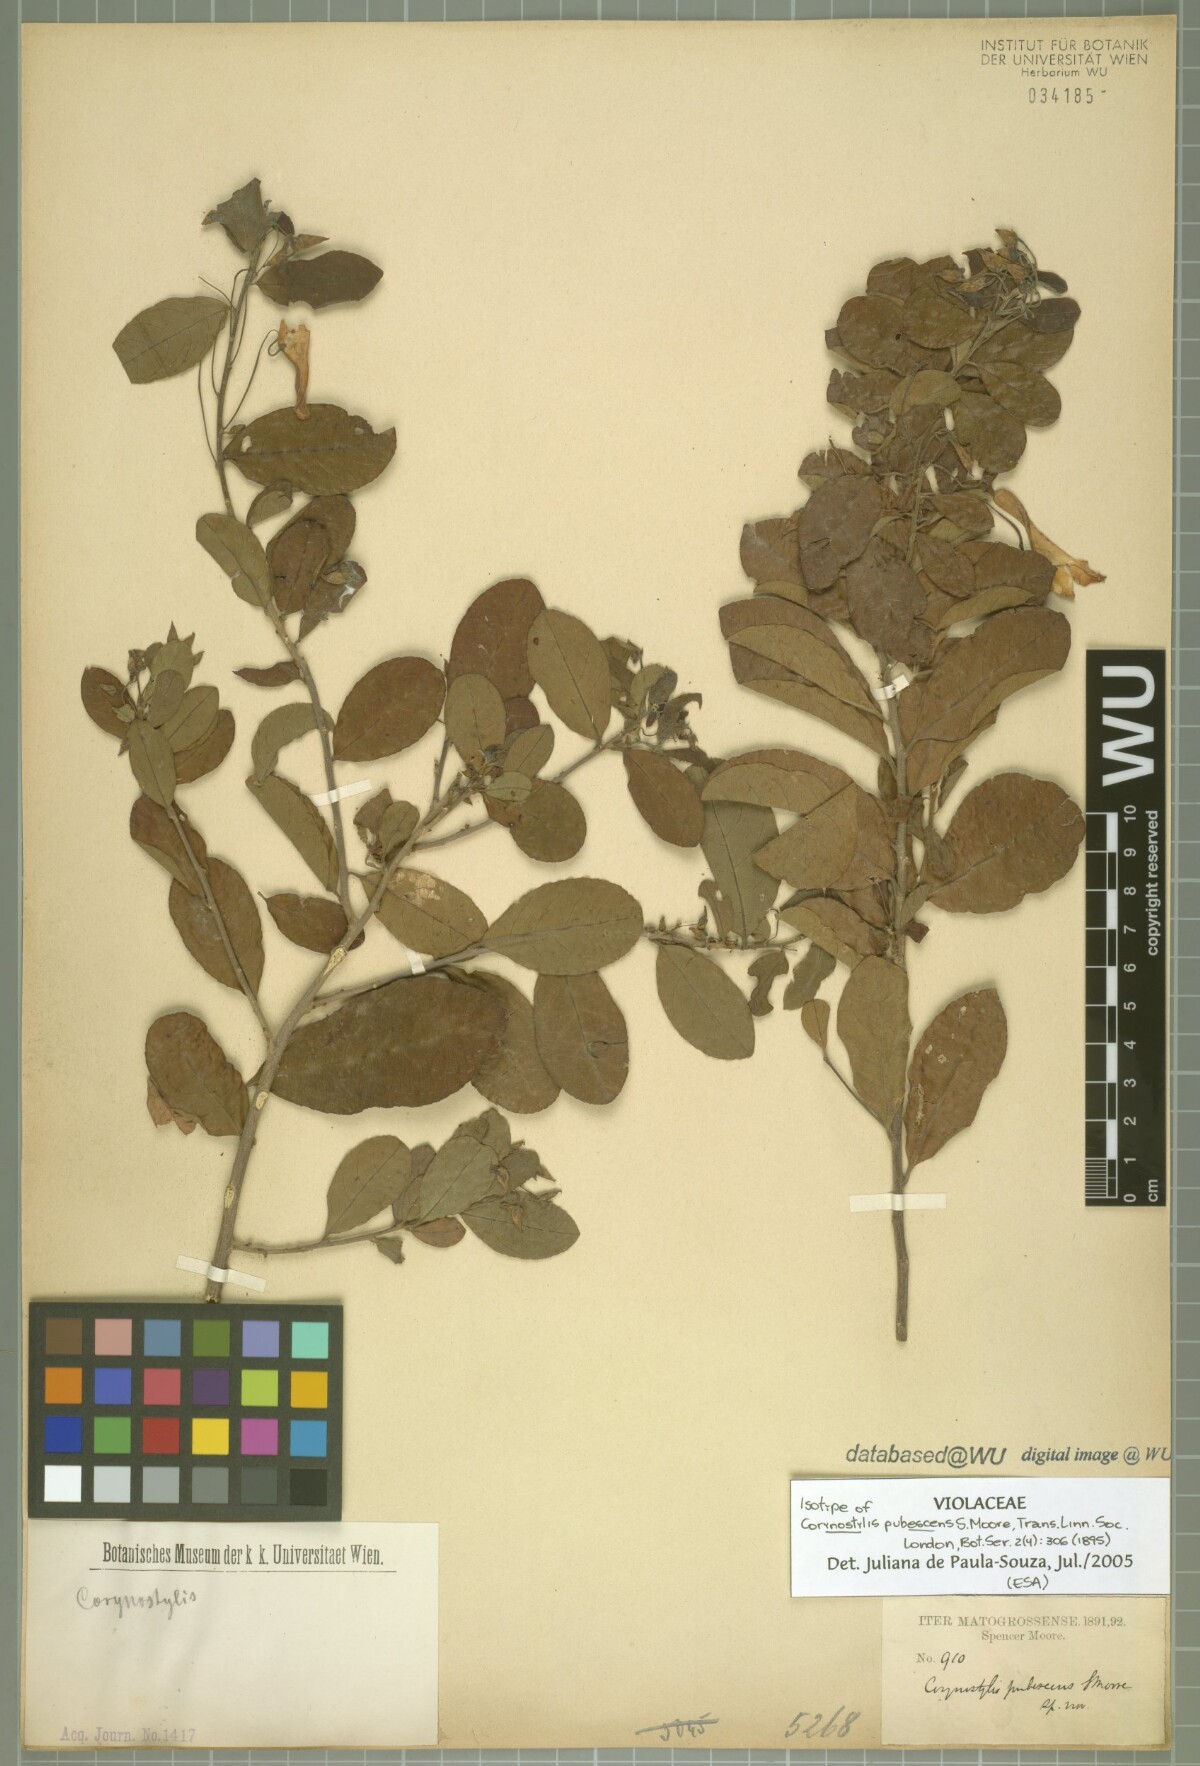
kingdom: Plantae
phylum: Tracheophyta
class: Magnoliopsida
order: Malpighiales
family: Violaceae
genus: Calyptrion
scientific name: Calyptrion pubescens
